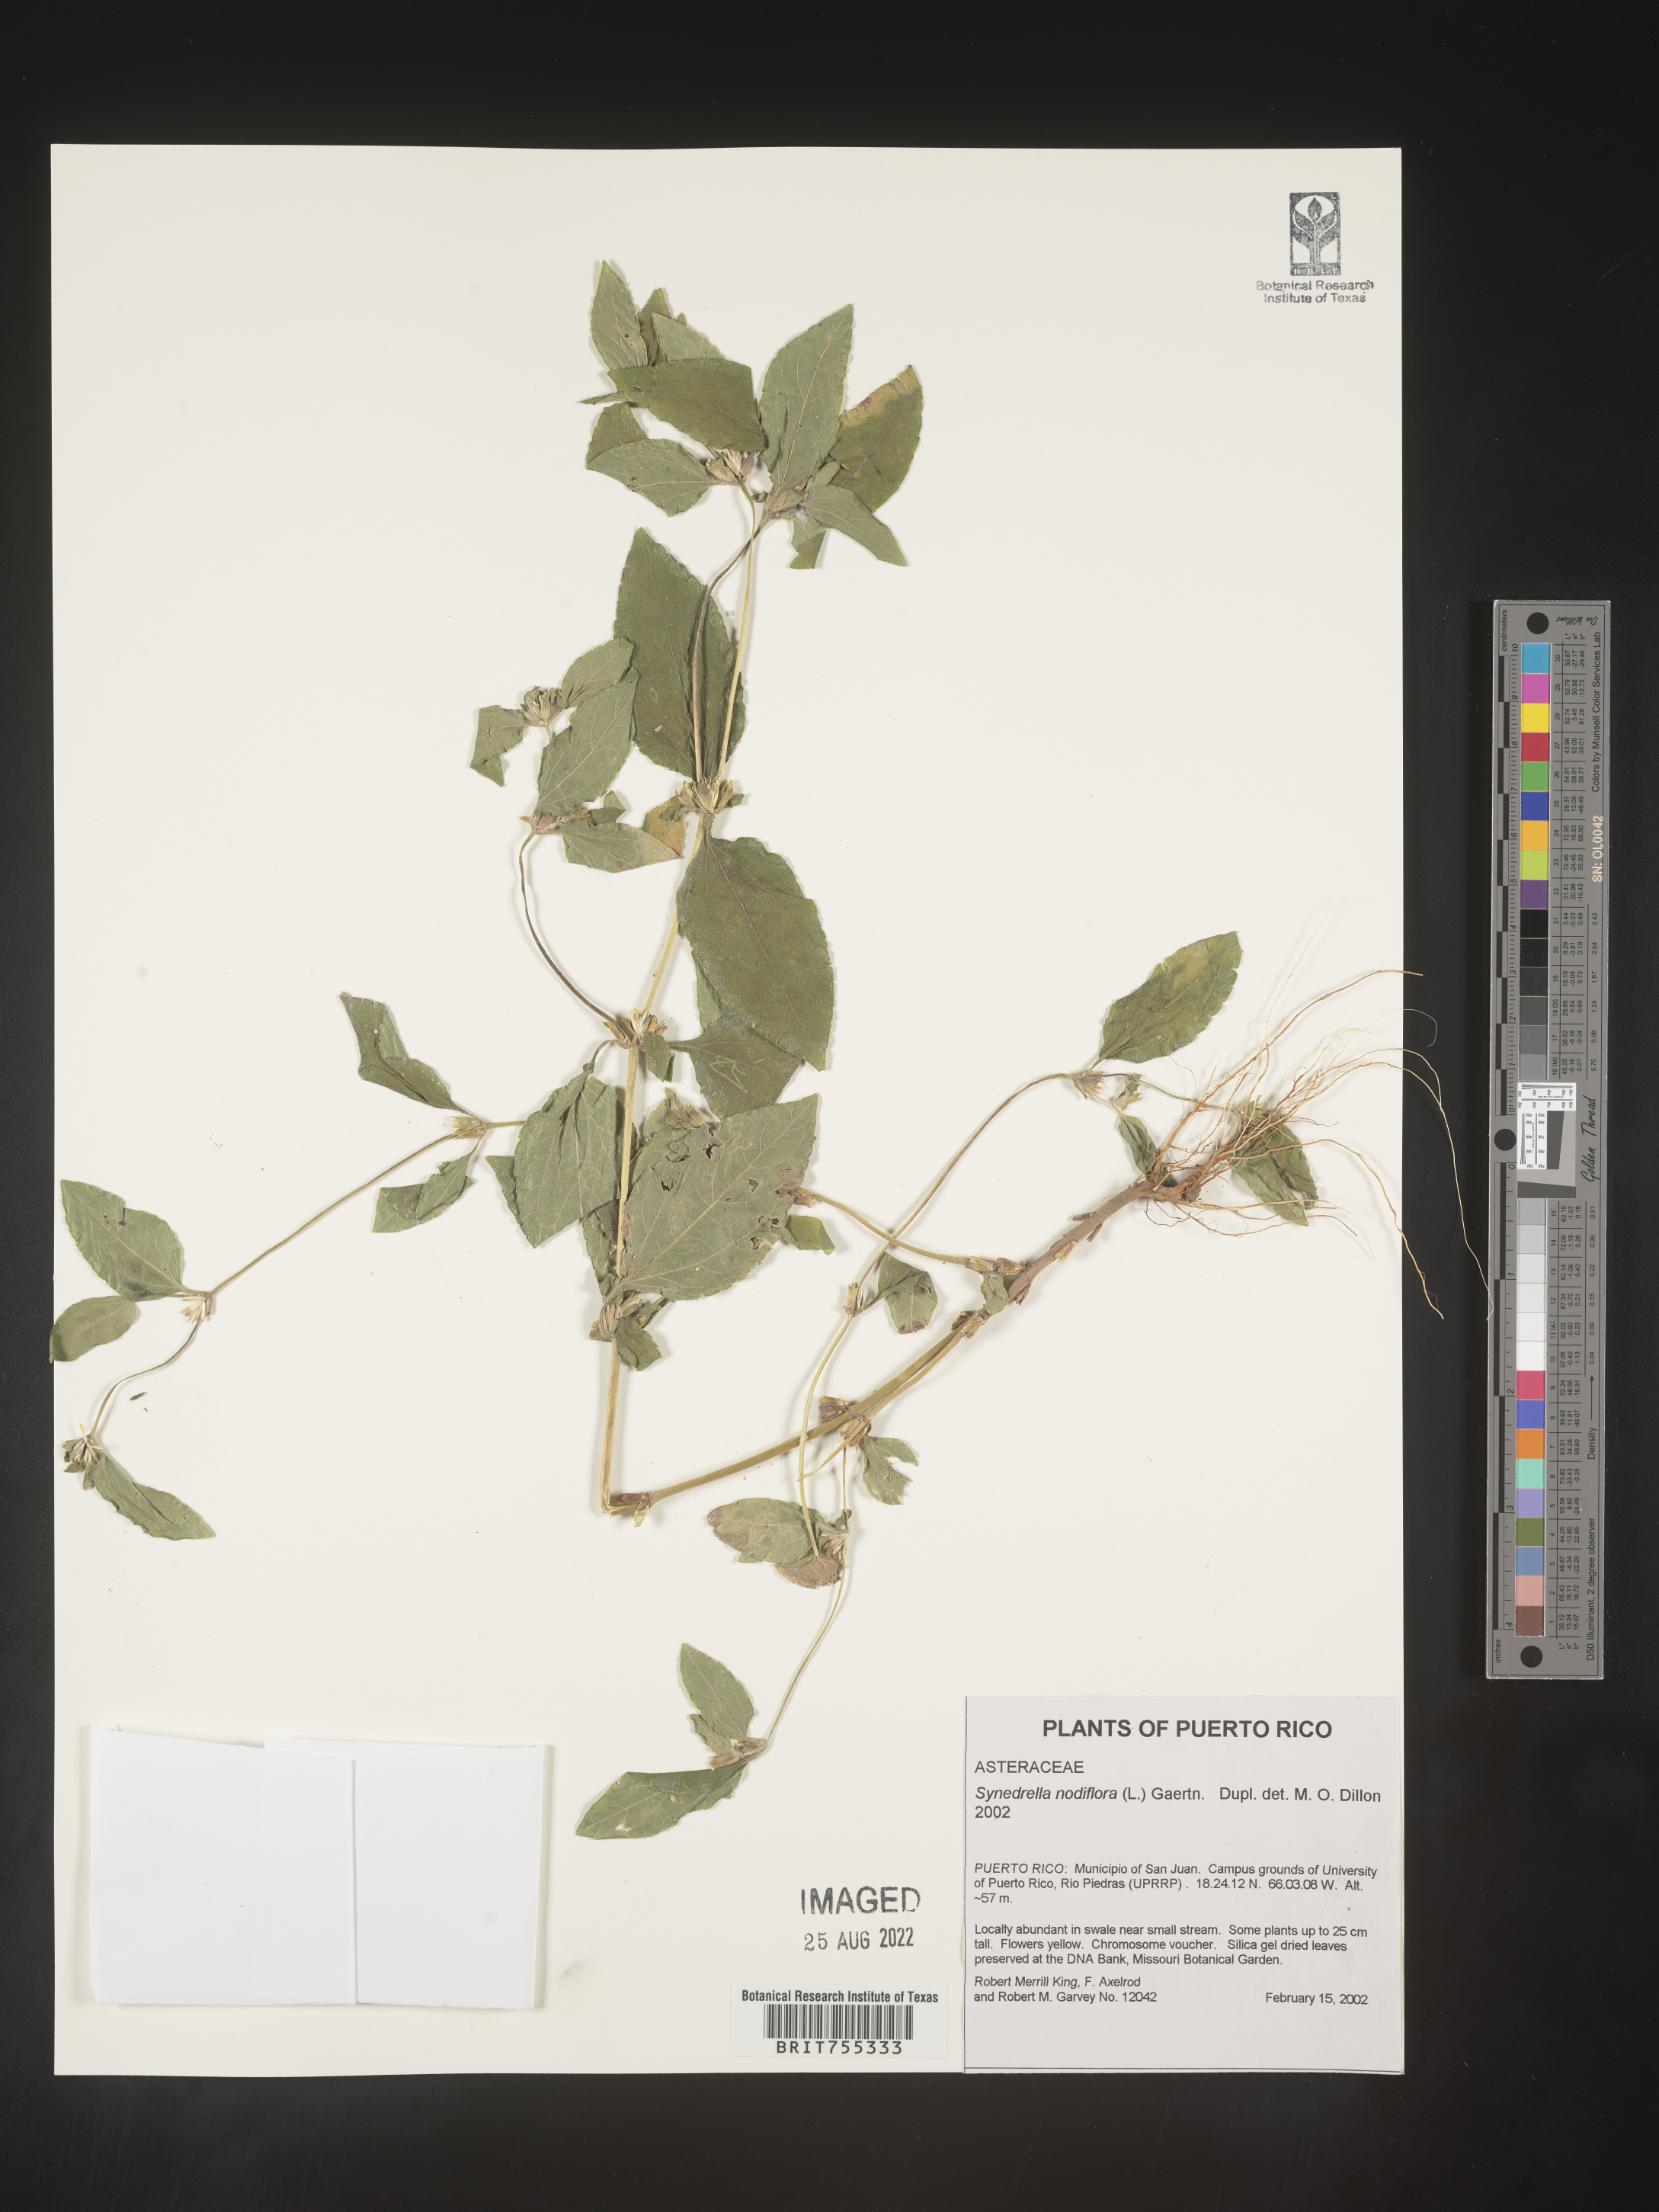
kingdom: Plantae
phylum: Tracheophyta
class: Magnoliopsida
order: Asterales
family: Asteraceae
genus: Synedrella
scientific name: Synedrella
